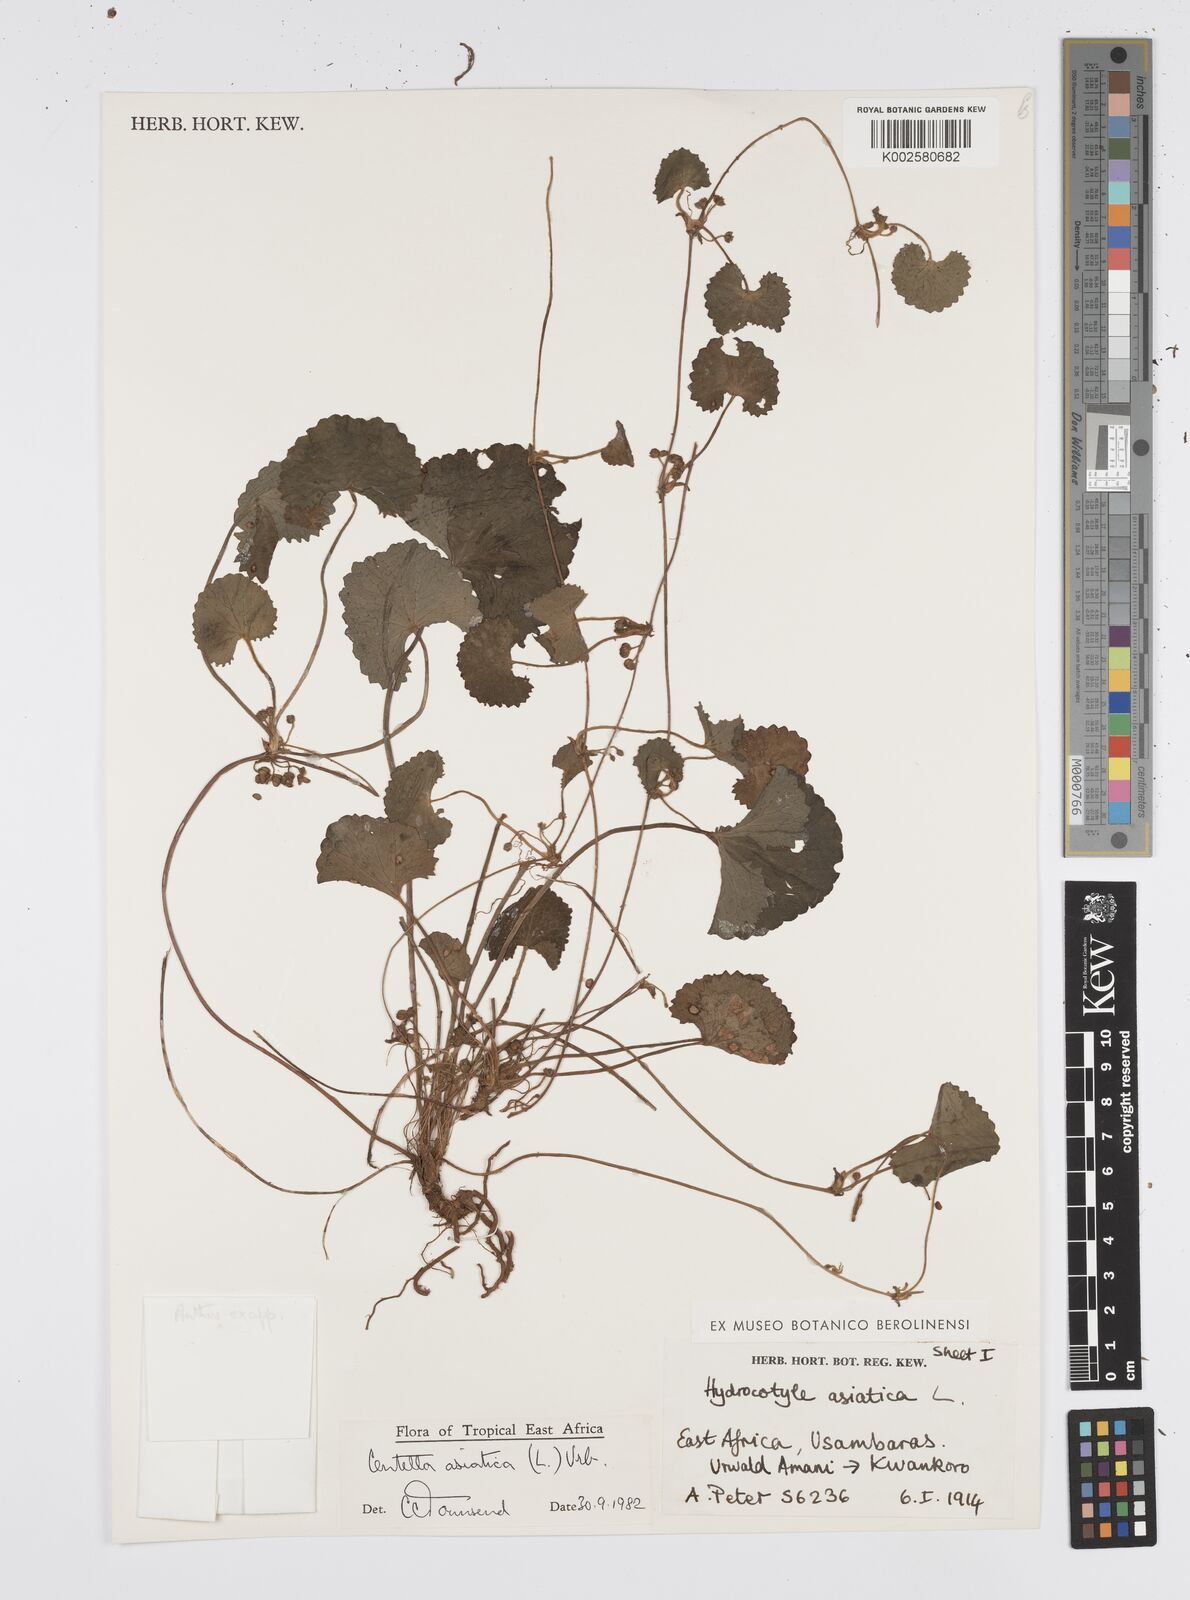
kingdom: Plantae
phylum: Tracheophyta
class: Magnoliopsida
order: Apiales
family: Apiaceae
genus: Centella
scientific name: Centella asiatica
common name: Spadeleaf
